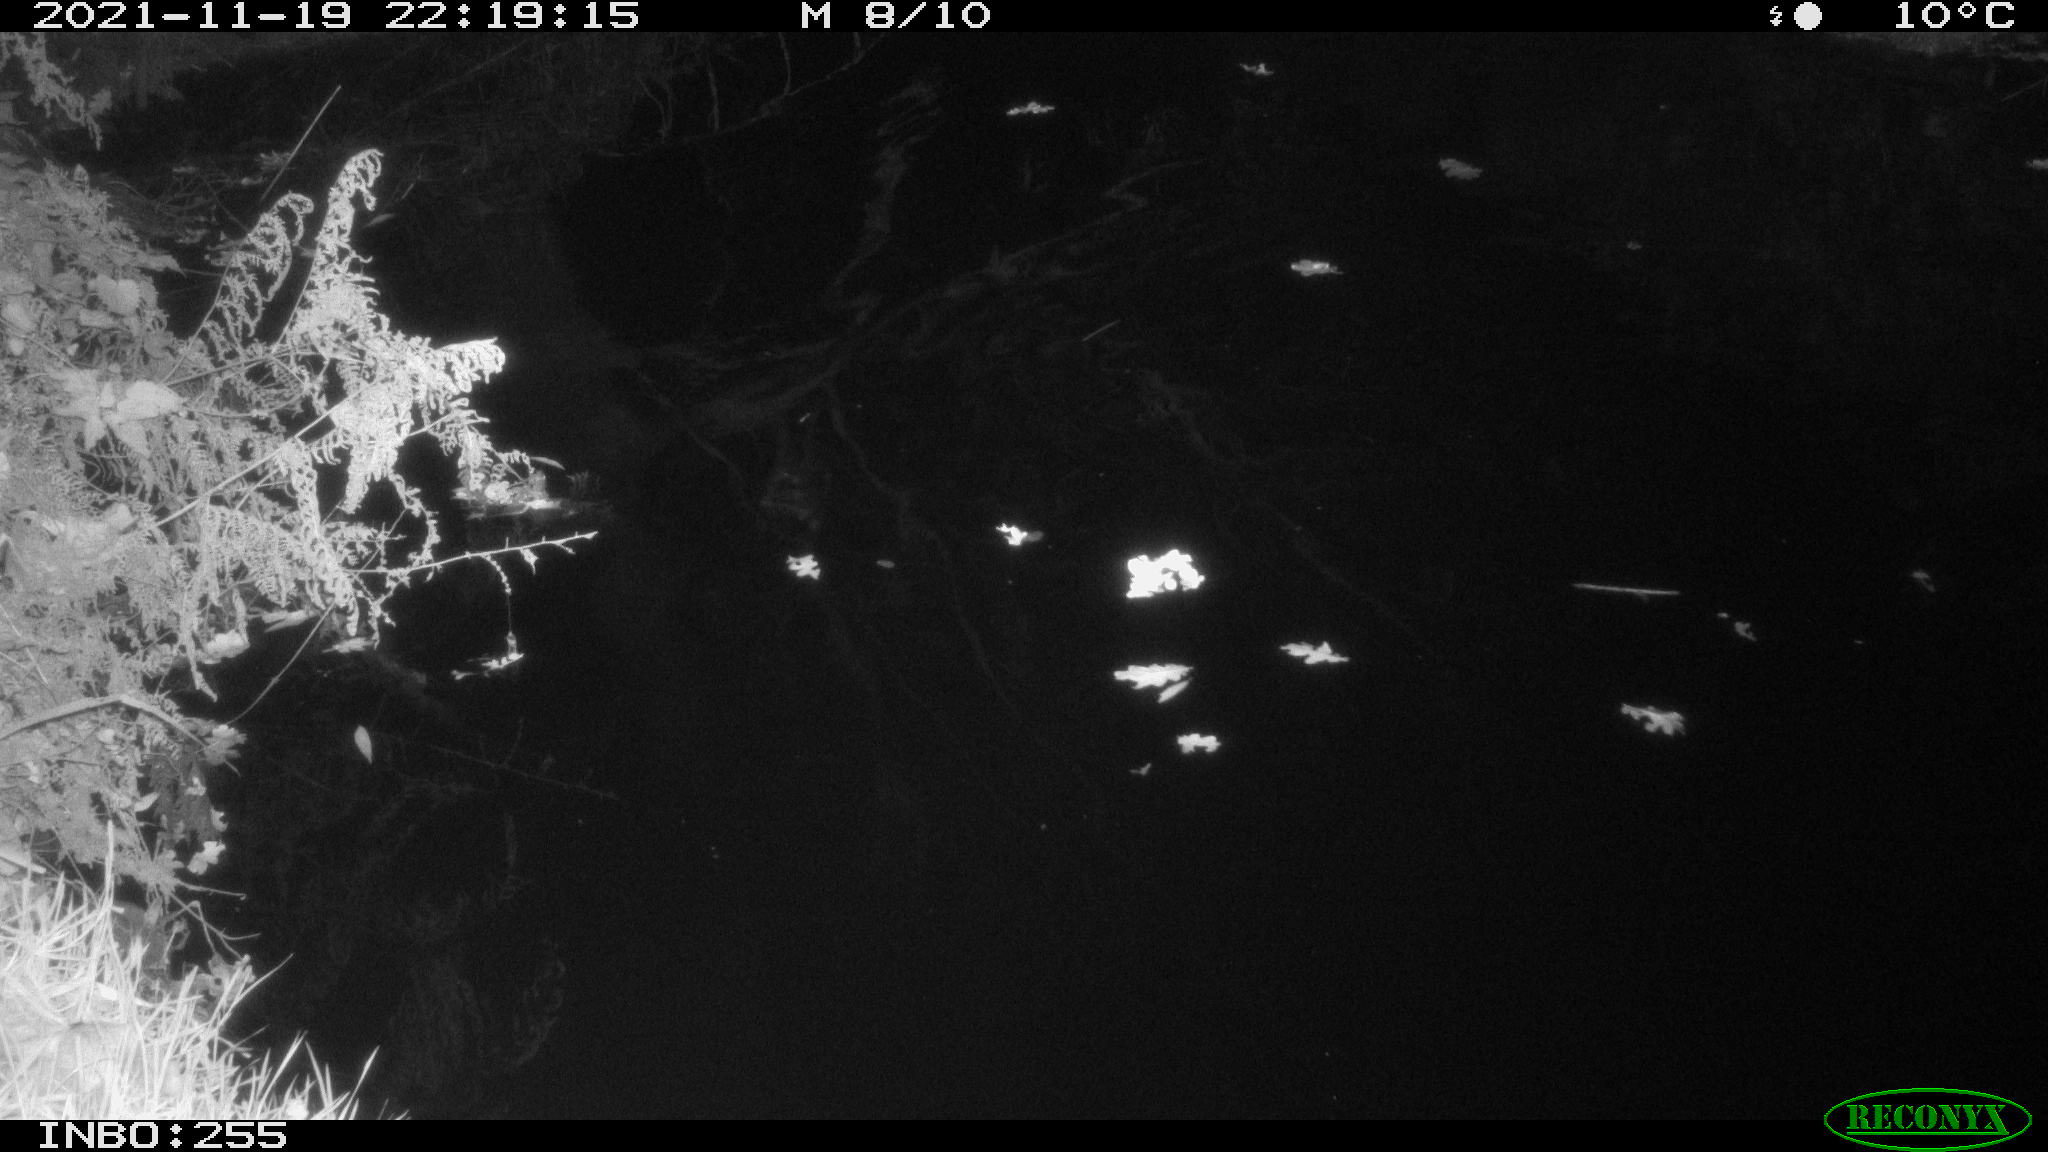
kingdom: Animalia
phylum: Chordata
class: Aves
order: Anseriformes
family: Anatidae
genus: Anas
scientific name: Anas platyrhynchos
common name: Mallard
